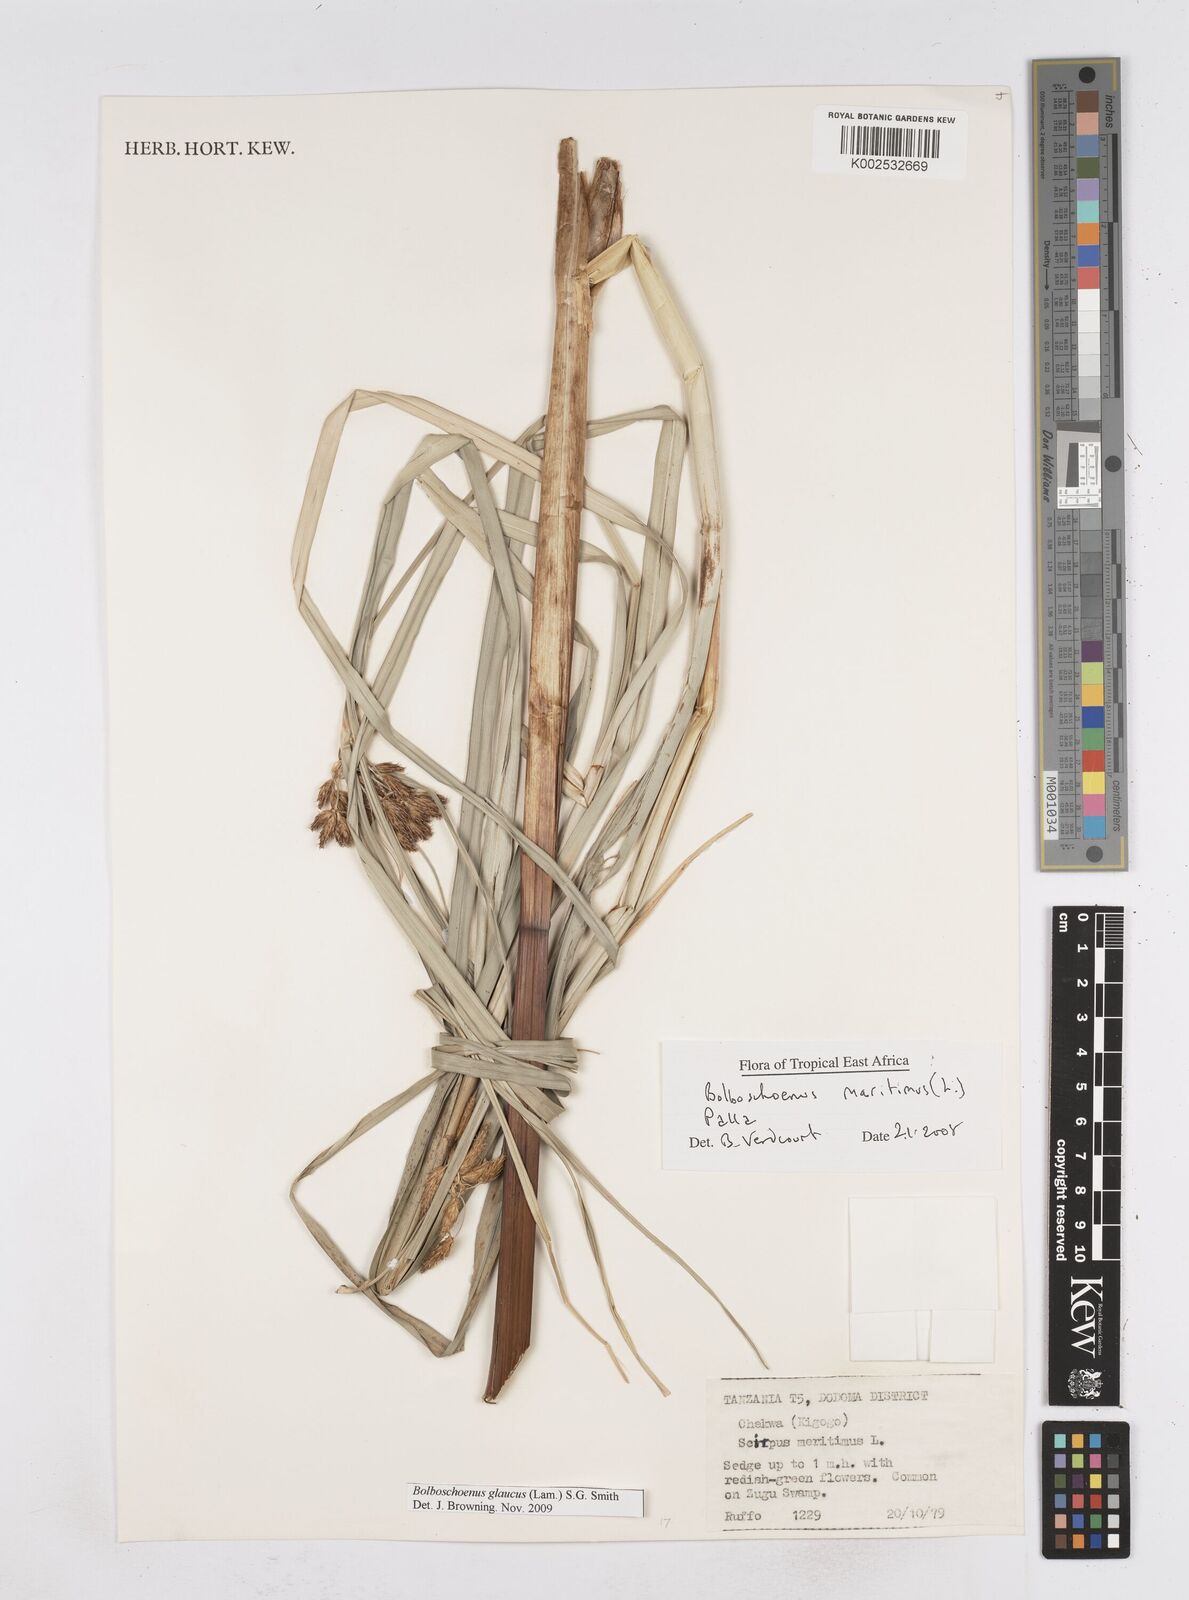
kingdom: Plantae
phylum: Tracheophyta
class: Liliopsida
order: Poales
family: Cyperaceae
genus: Bolboschoenus
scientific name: Bolboschoenus glaucus
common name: Tuberous bulrush
